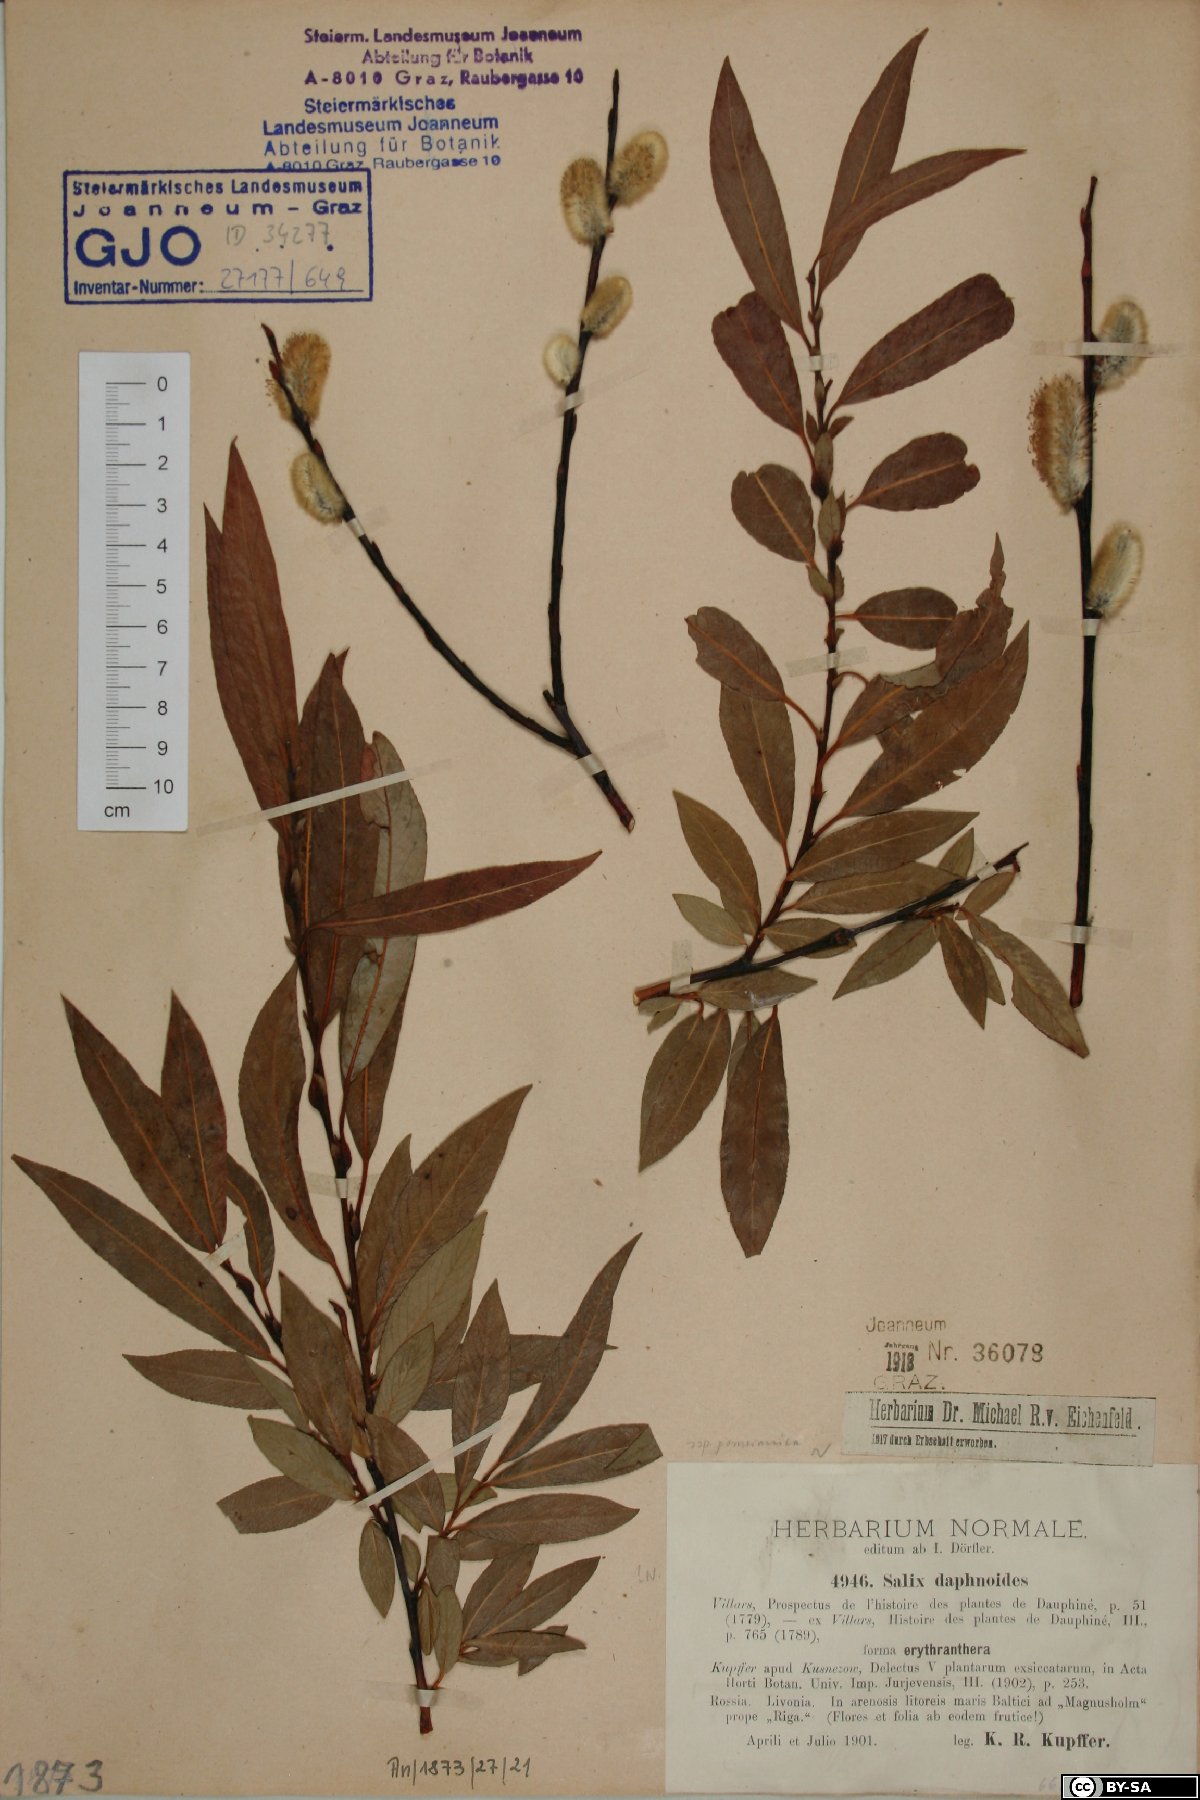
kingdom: Plantae
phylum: Tracheophyta
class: Magnoliopsida
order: Malpighiales
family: Salicaceae
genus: Salix
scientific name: Salix daphnoides
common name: European violet-willow
